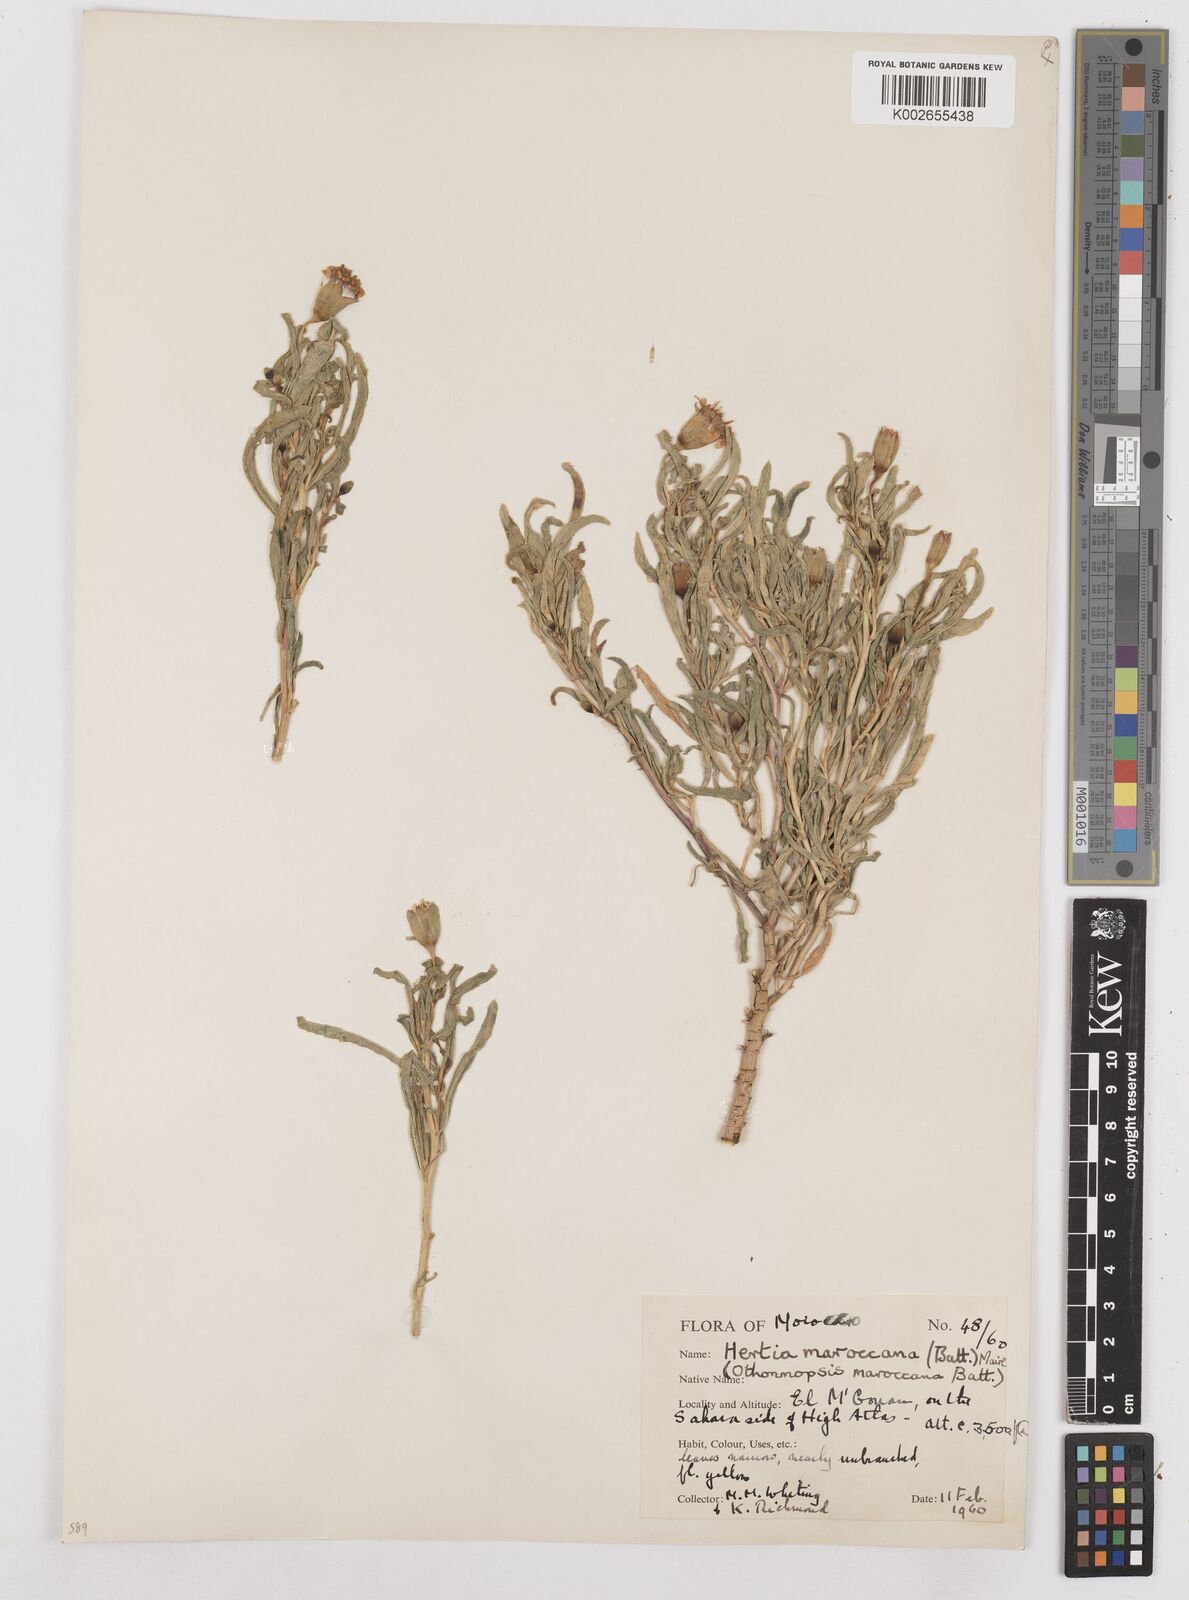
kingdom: Plantae
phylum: Tracheophyta
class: Magnoliopsida
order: Asterales
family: Asteraceae
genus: Hertia
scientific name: Hertia maroccana
